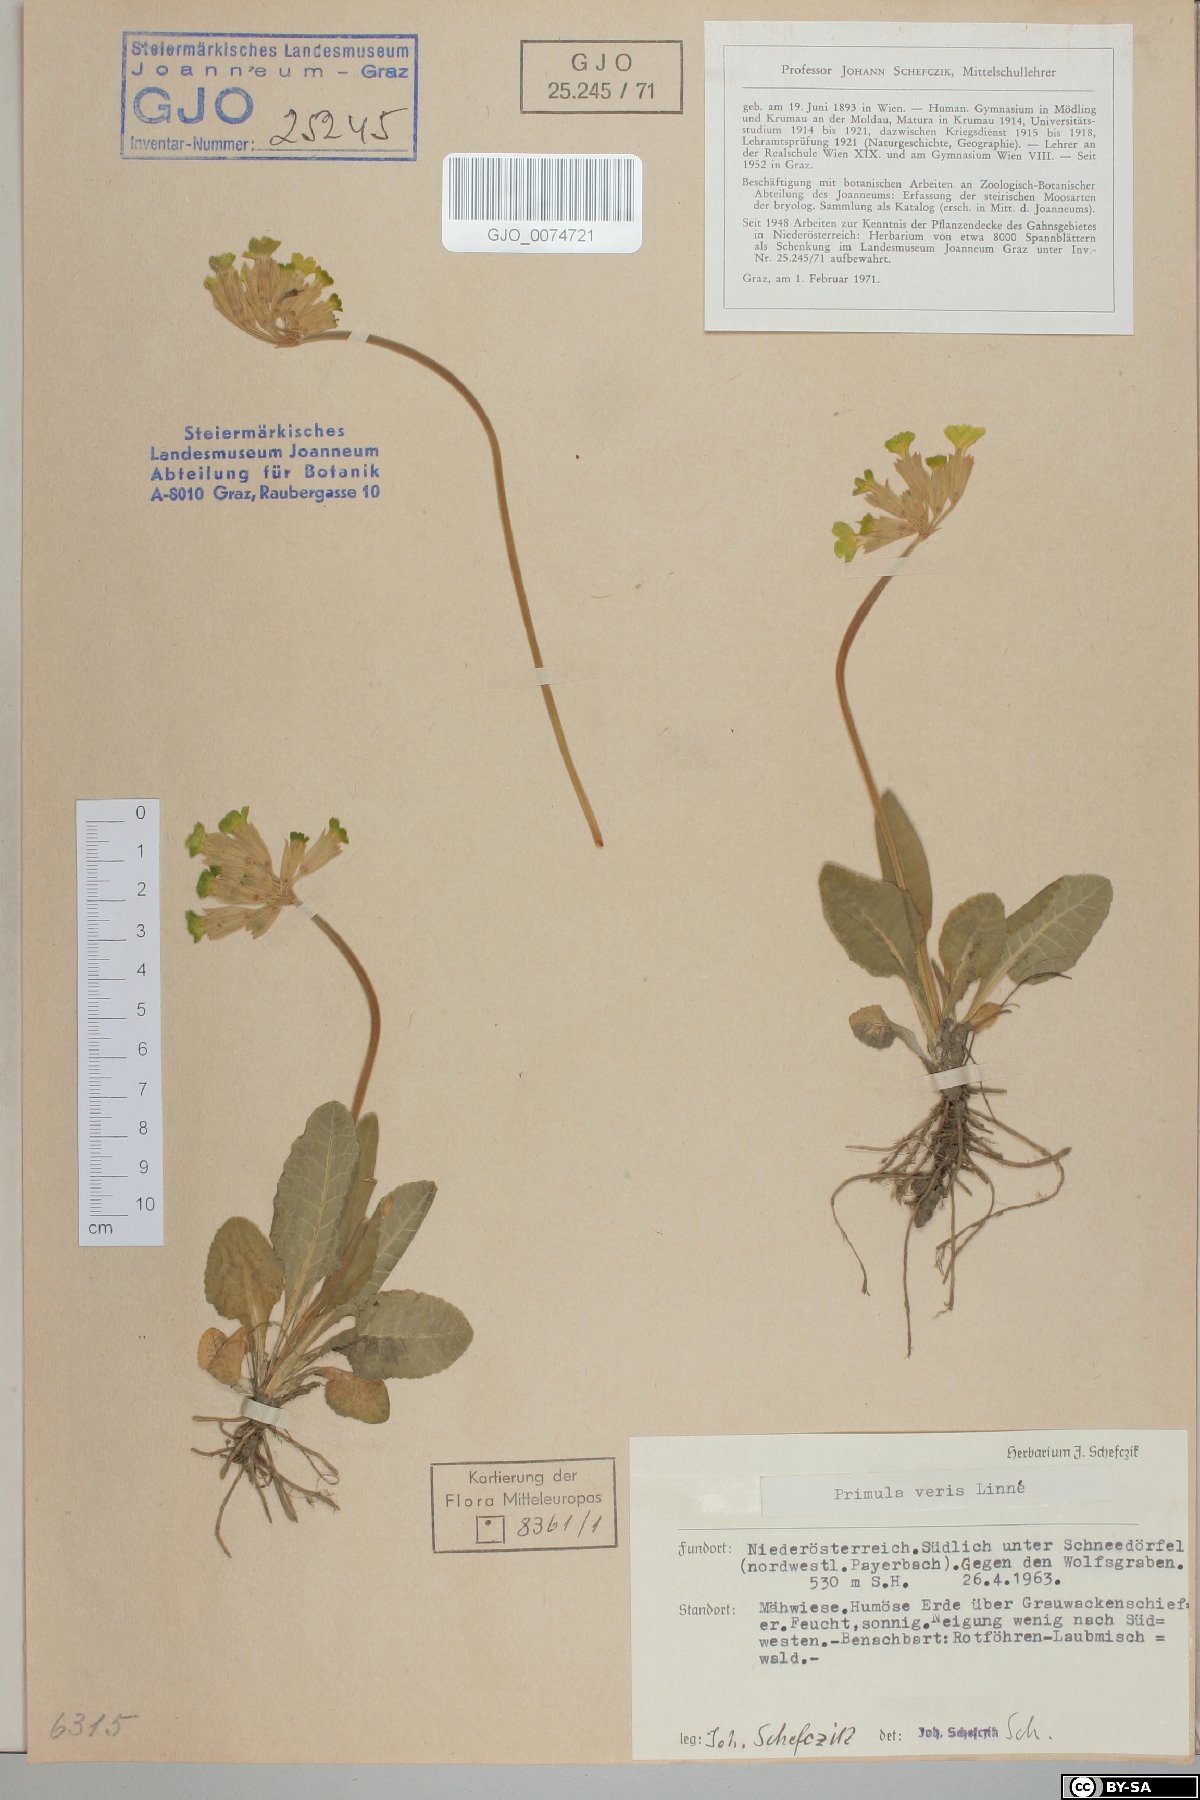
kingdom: Plantae
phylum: Tracheophyta
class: Magnoliopsida
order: Ericales
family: Primulaceae
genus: Primula
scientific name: Primula veris
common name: Cowslip
